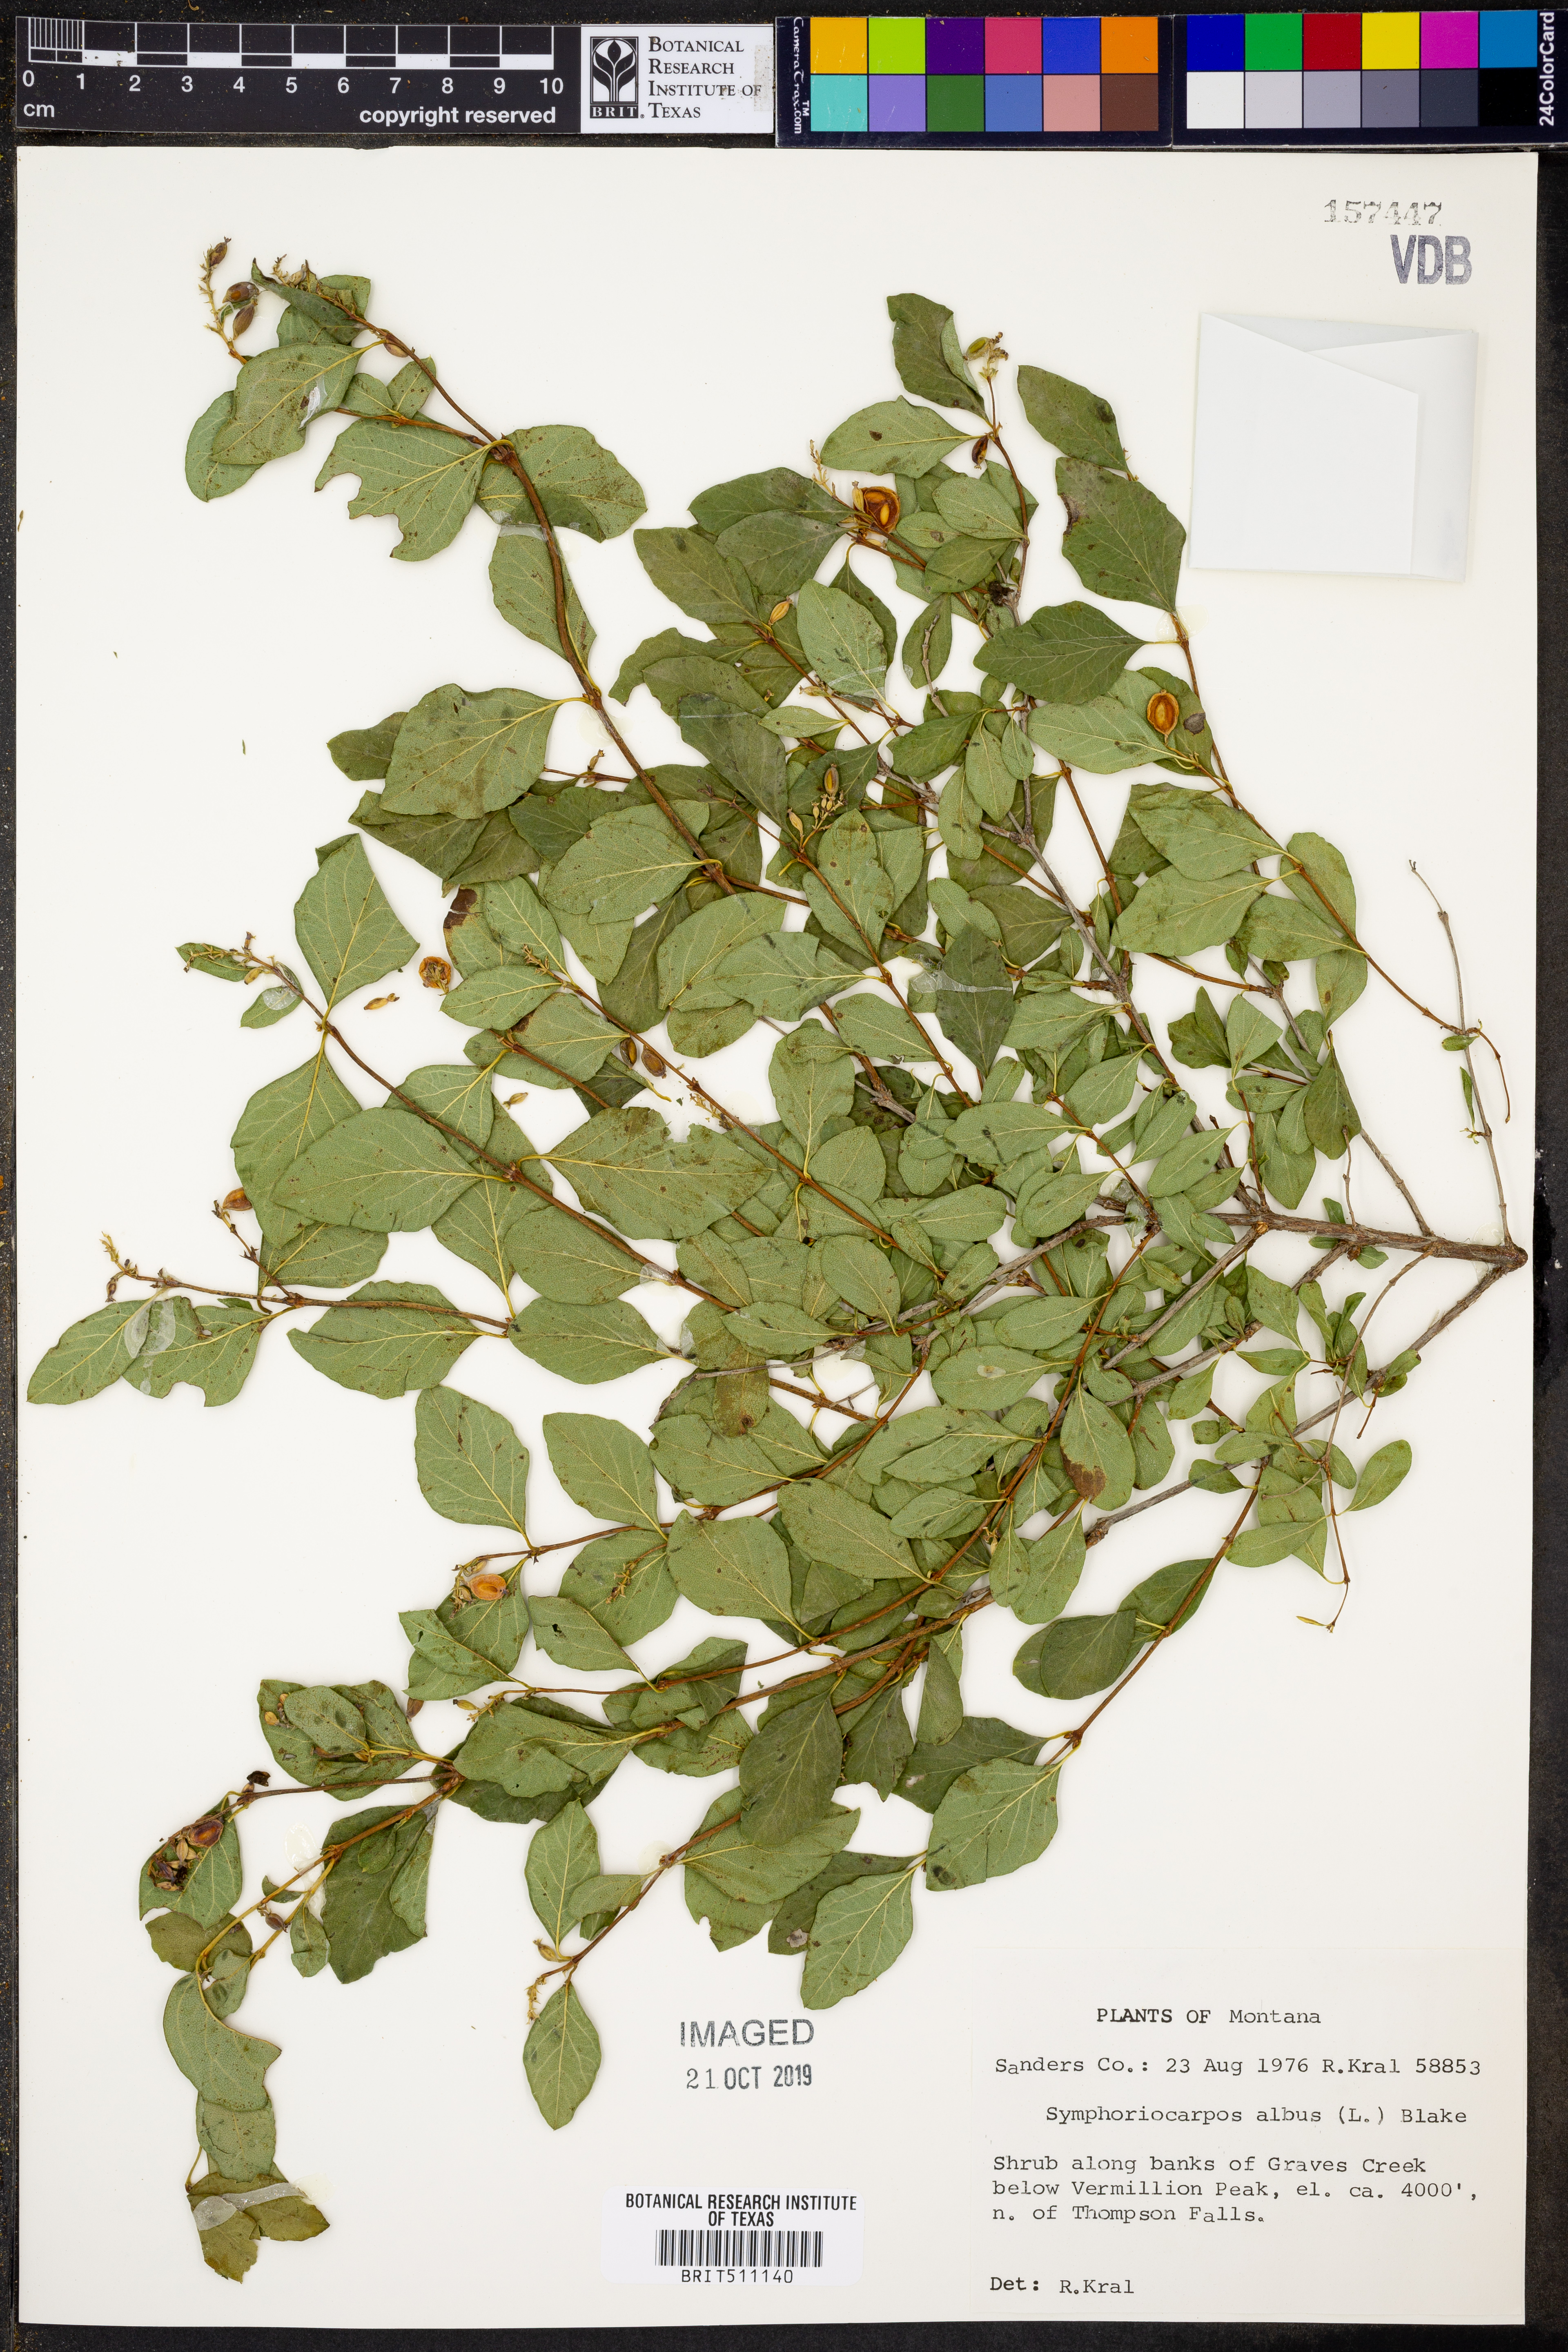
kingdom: Plantae
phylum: Tracheophyta
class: Magnoliopsida
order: Dipsacales
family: Caprifoliaceae
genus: Symphoricarpos
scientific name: Symphoricarpos albus
